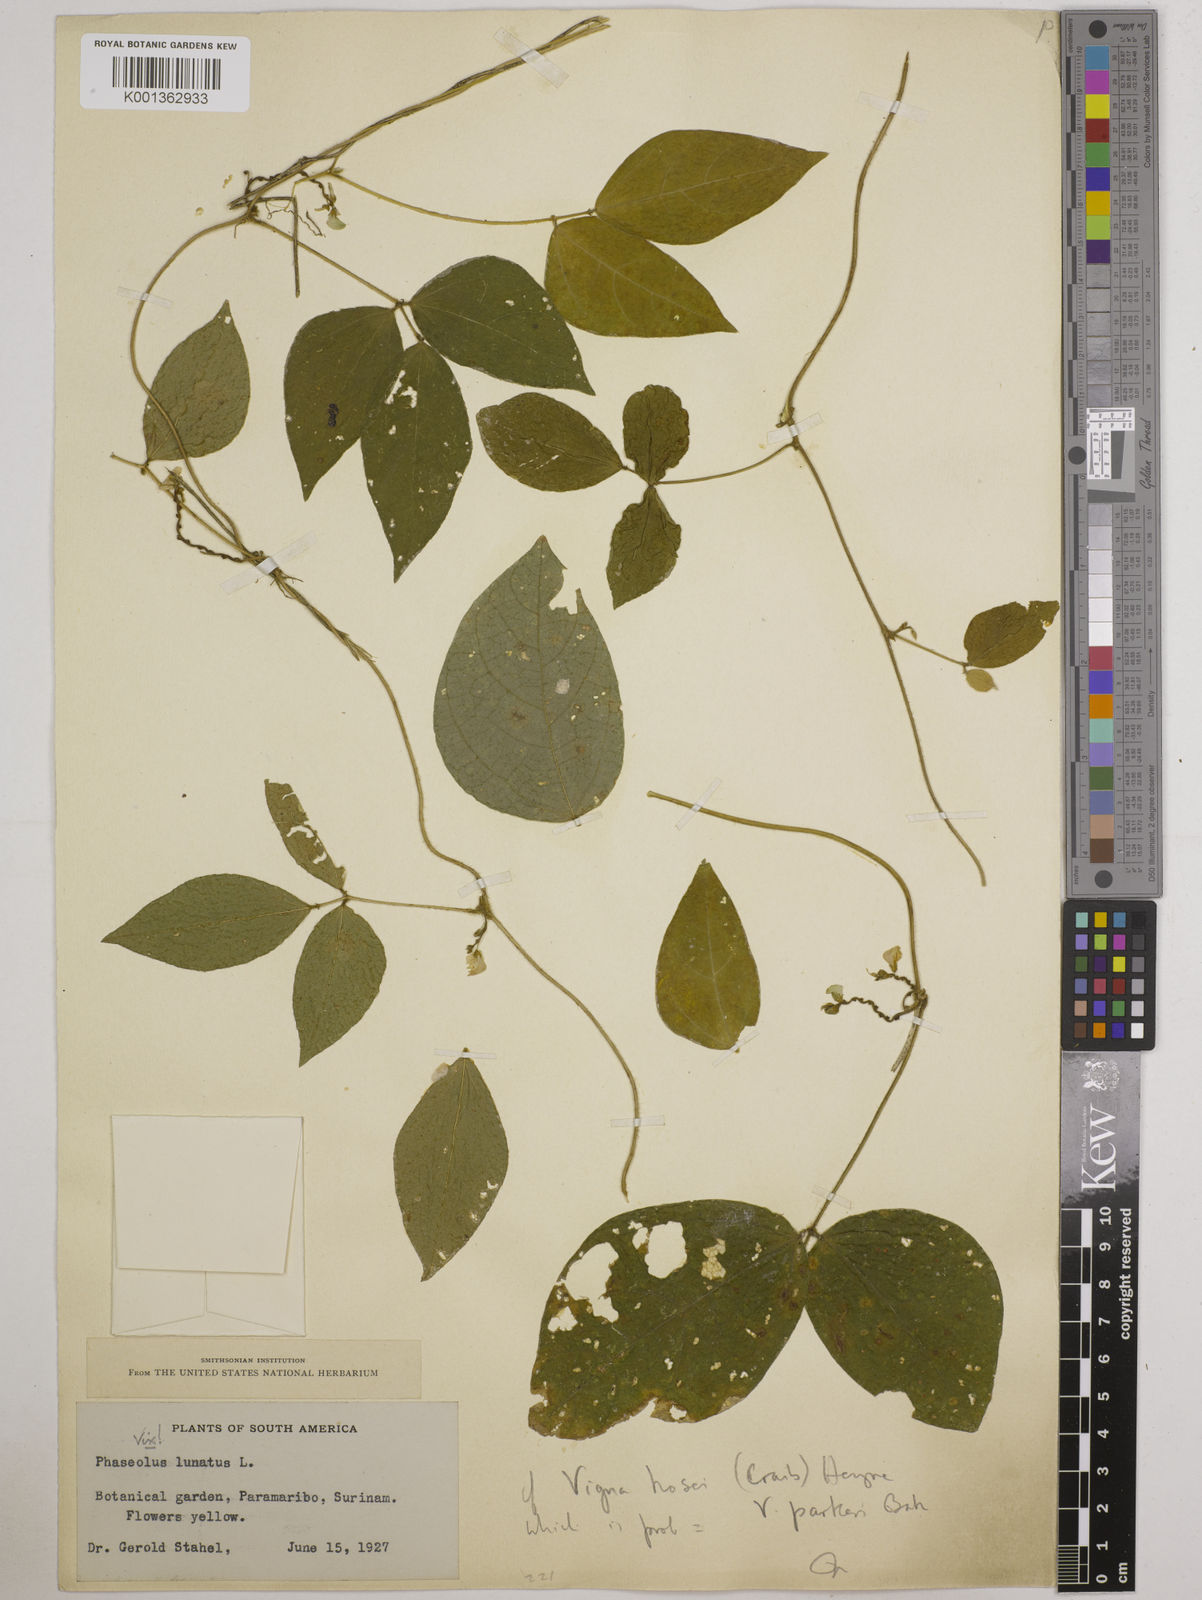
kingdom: Plantae
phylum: Tracheophyta
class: Magnoliopsida
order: Fabales
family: Fabaceae
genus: Vigna
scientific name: Vigna hosei
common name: Sarawak-bean
